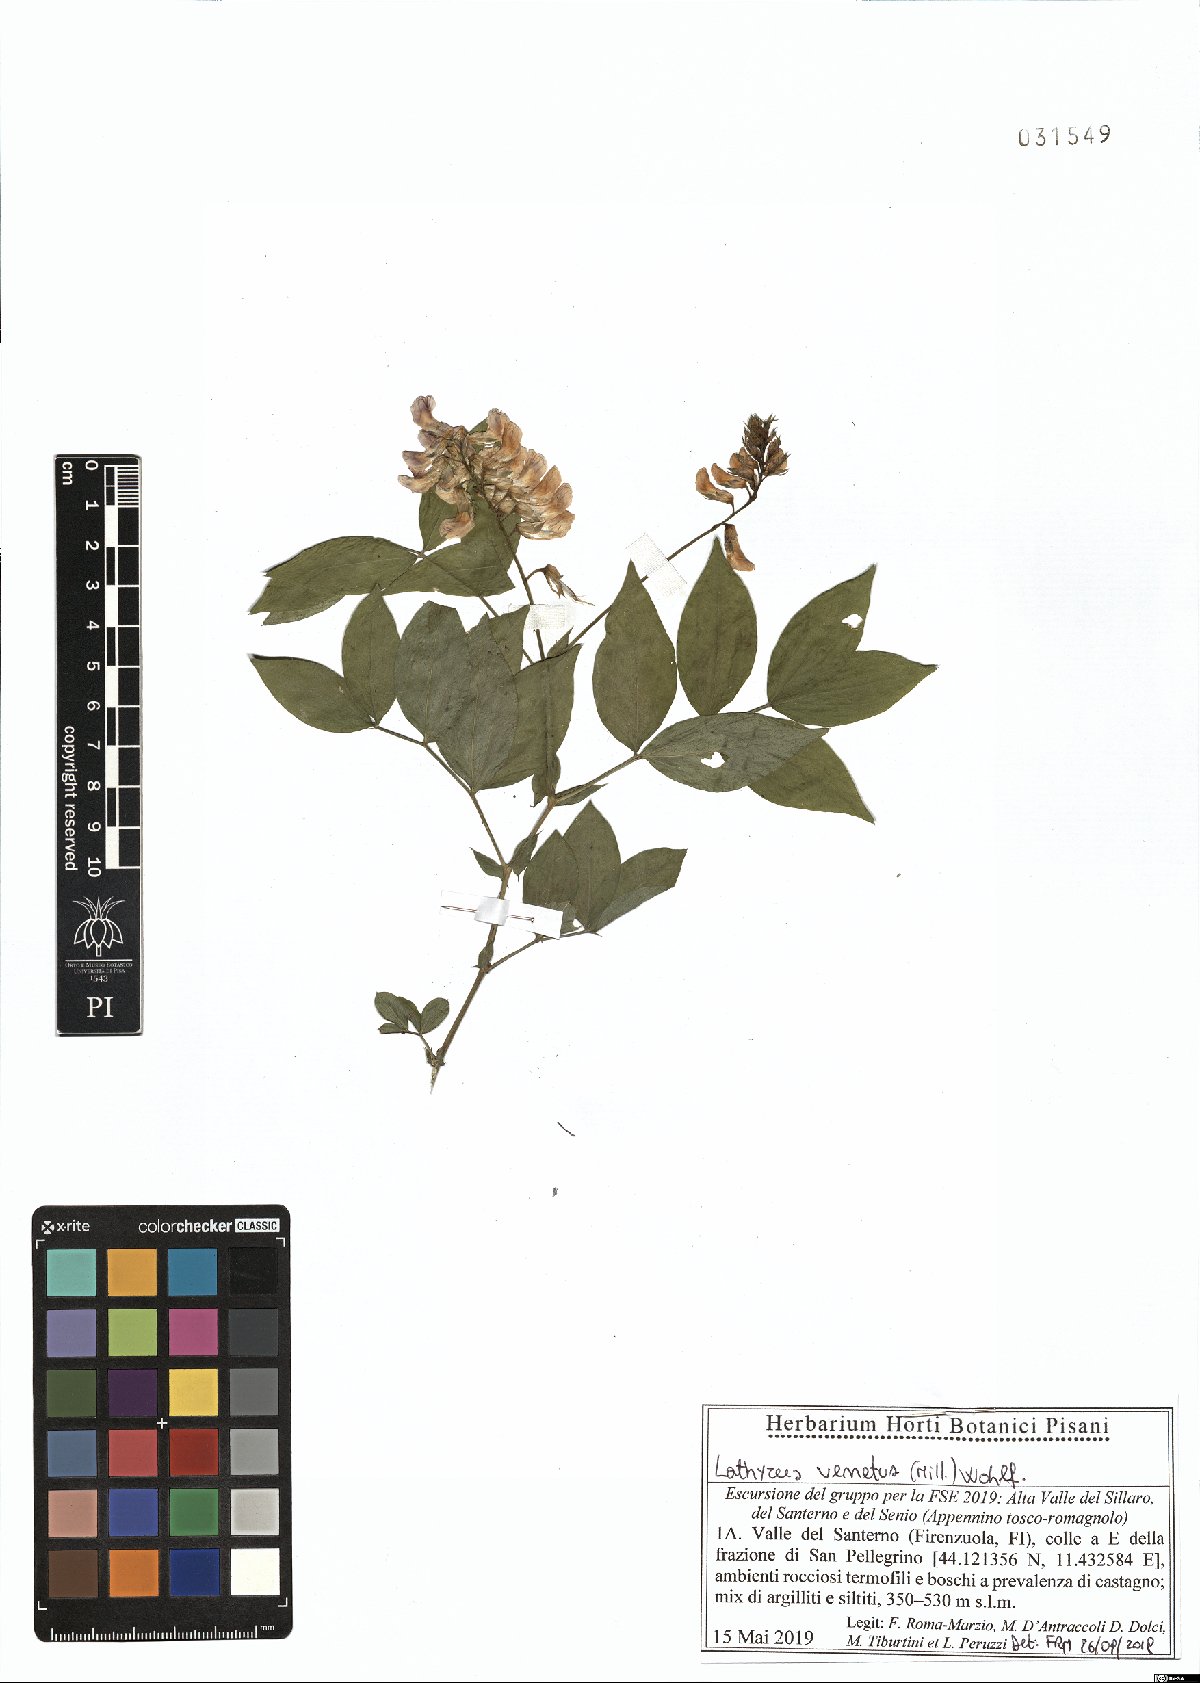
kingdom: Plantae
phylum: Tracheophyta
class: Magnoliopsida
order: Fabales
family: Fabaceae
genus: Lathyrus
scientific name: Lathyrus venetus
